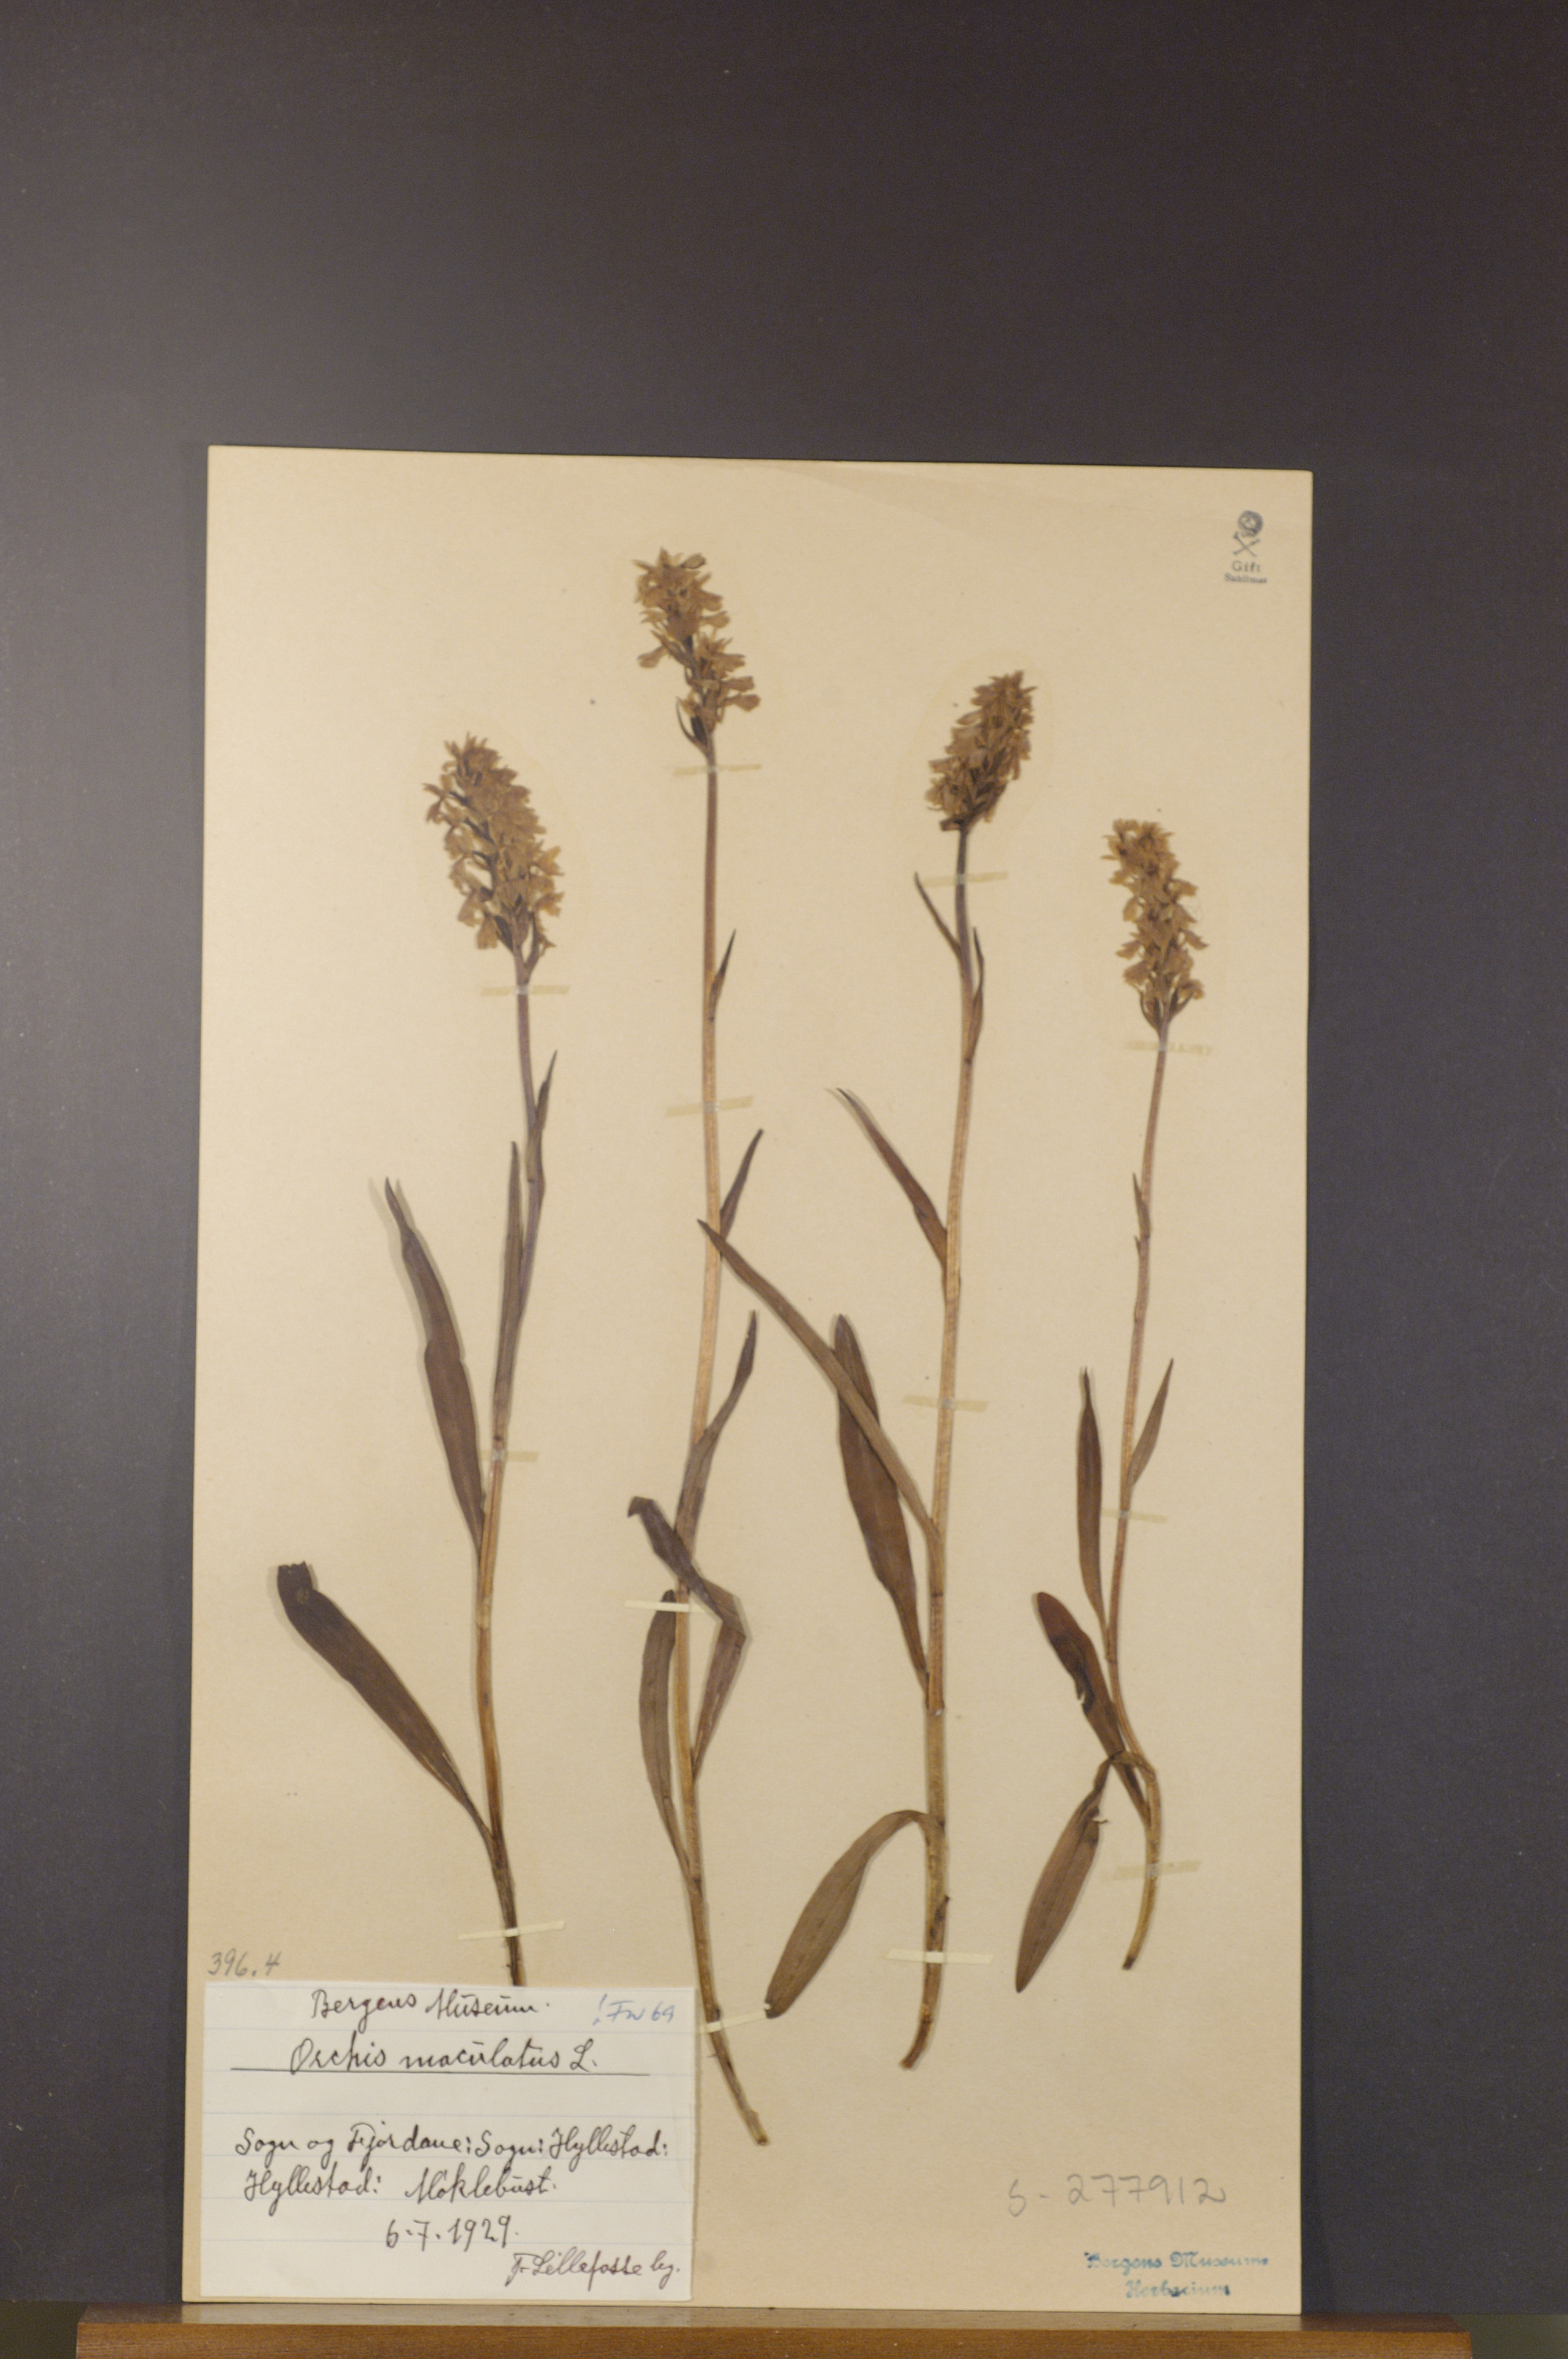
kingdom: Plantae
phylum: Tracheophyta
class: Liliopsida
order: Asparagales
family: Orchidaceae
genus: Dactylorhiza
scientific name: Dactylorhiza maculata
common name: Heath spotted-orchid
